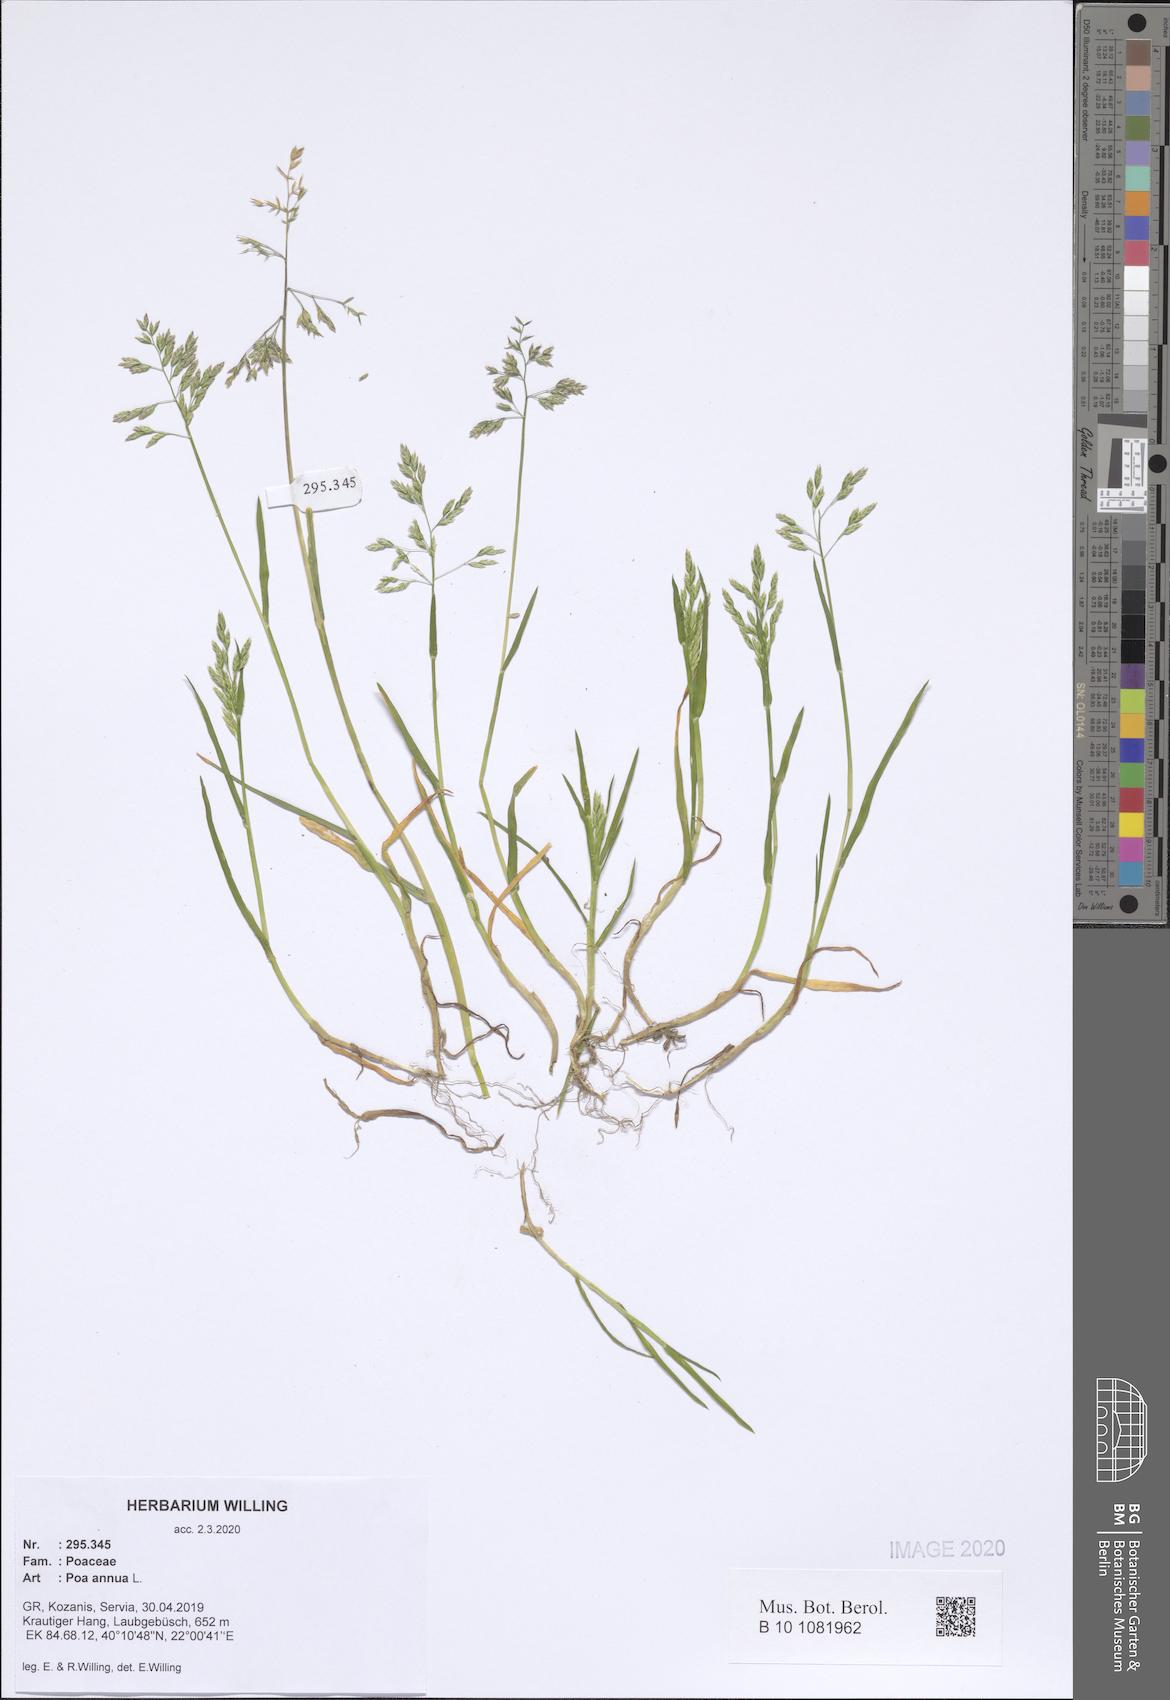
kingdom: Plantae
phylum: Tracheophyta
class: Liliopsida
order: Poales
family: Poaceae
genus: Poa
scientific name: Poa annua
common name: Annual bluegrass
